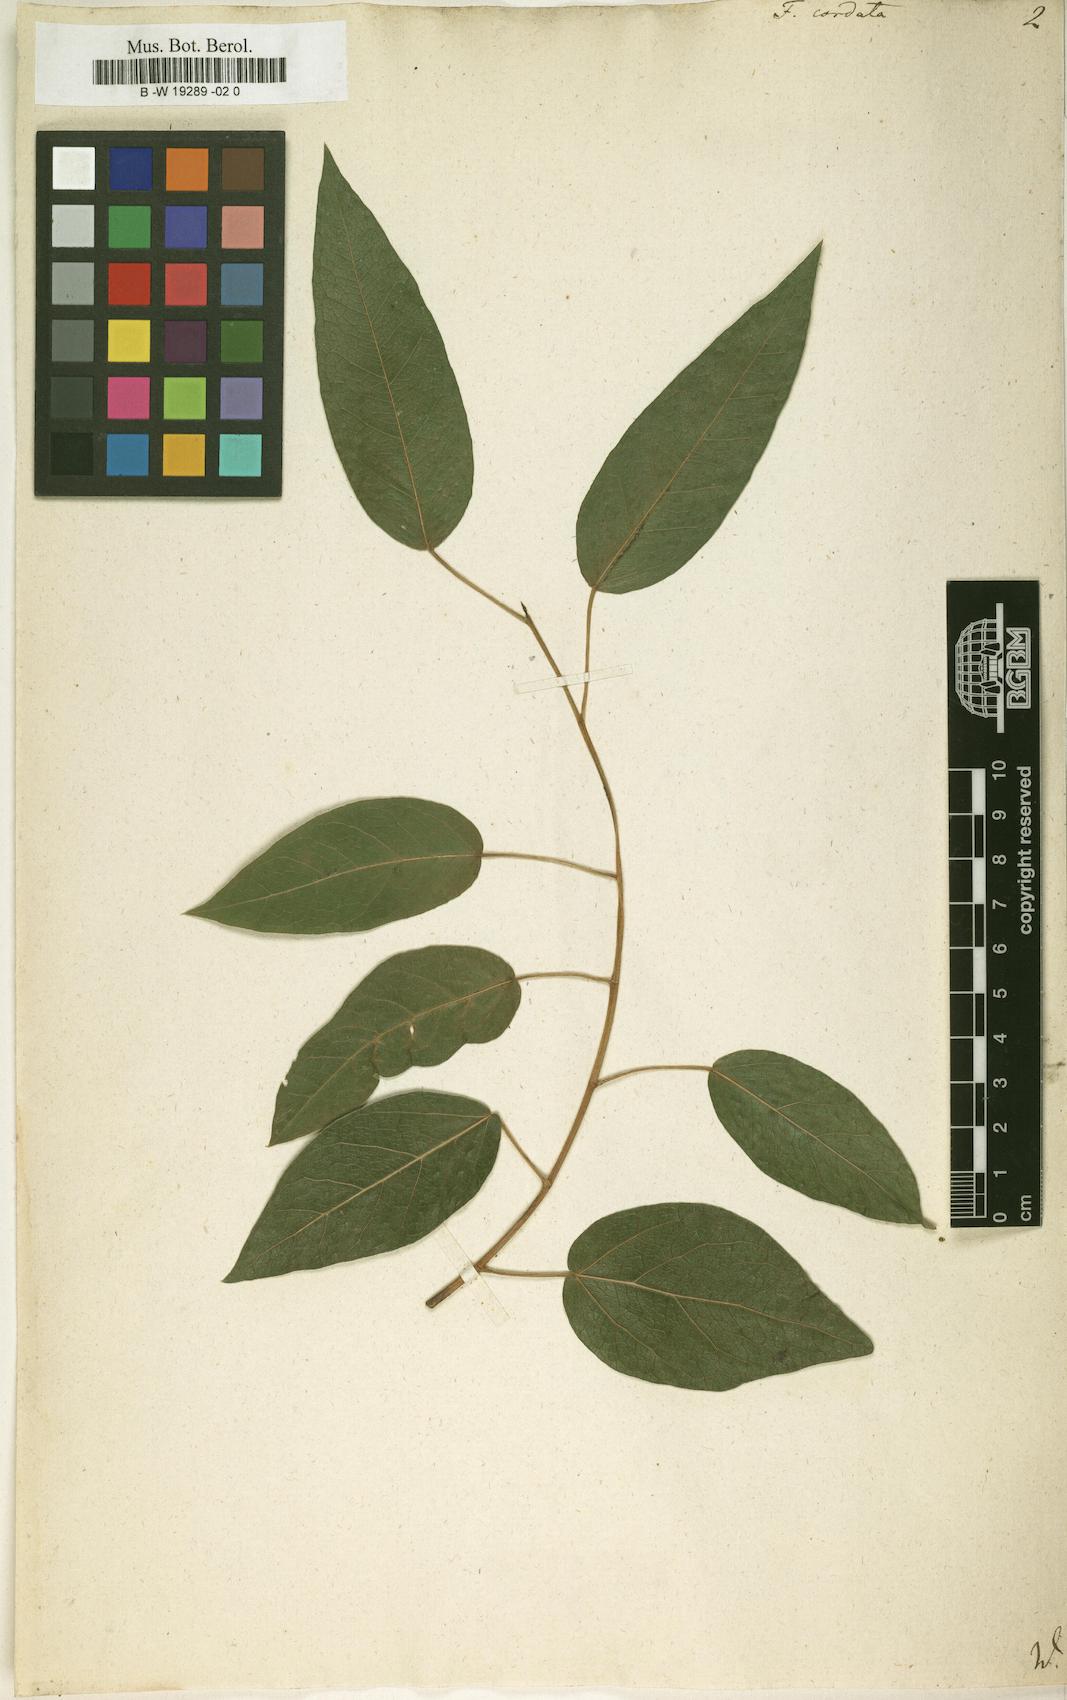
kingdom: Plantae
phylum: Tracheophyta
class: Magnoliopsida
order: Rosales
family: Moraceae
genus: Ficus
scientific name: Ficus cordata
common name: Namaqua rock fig
